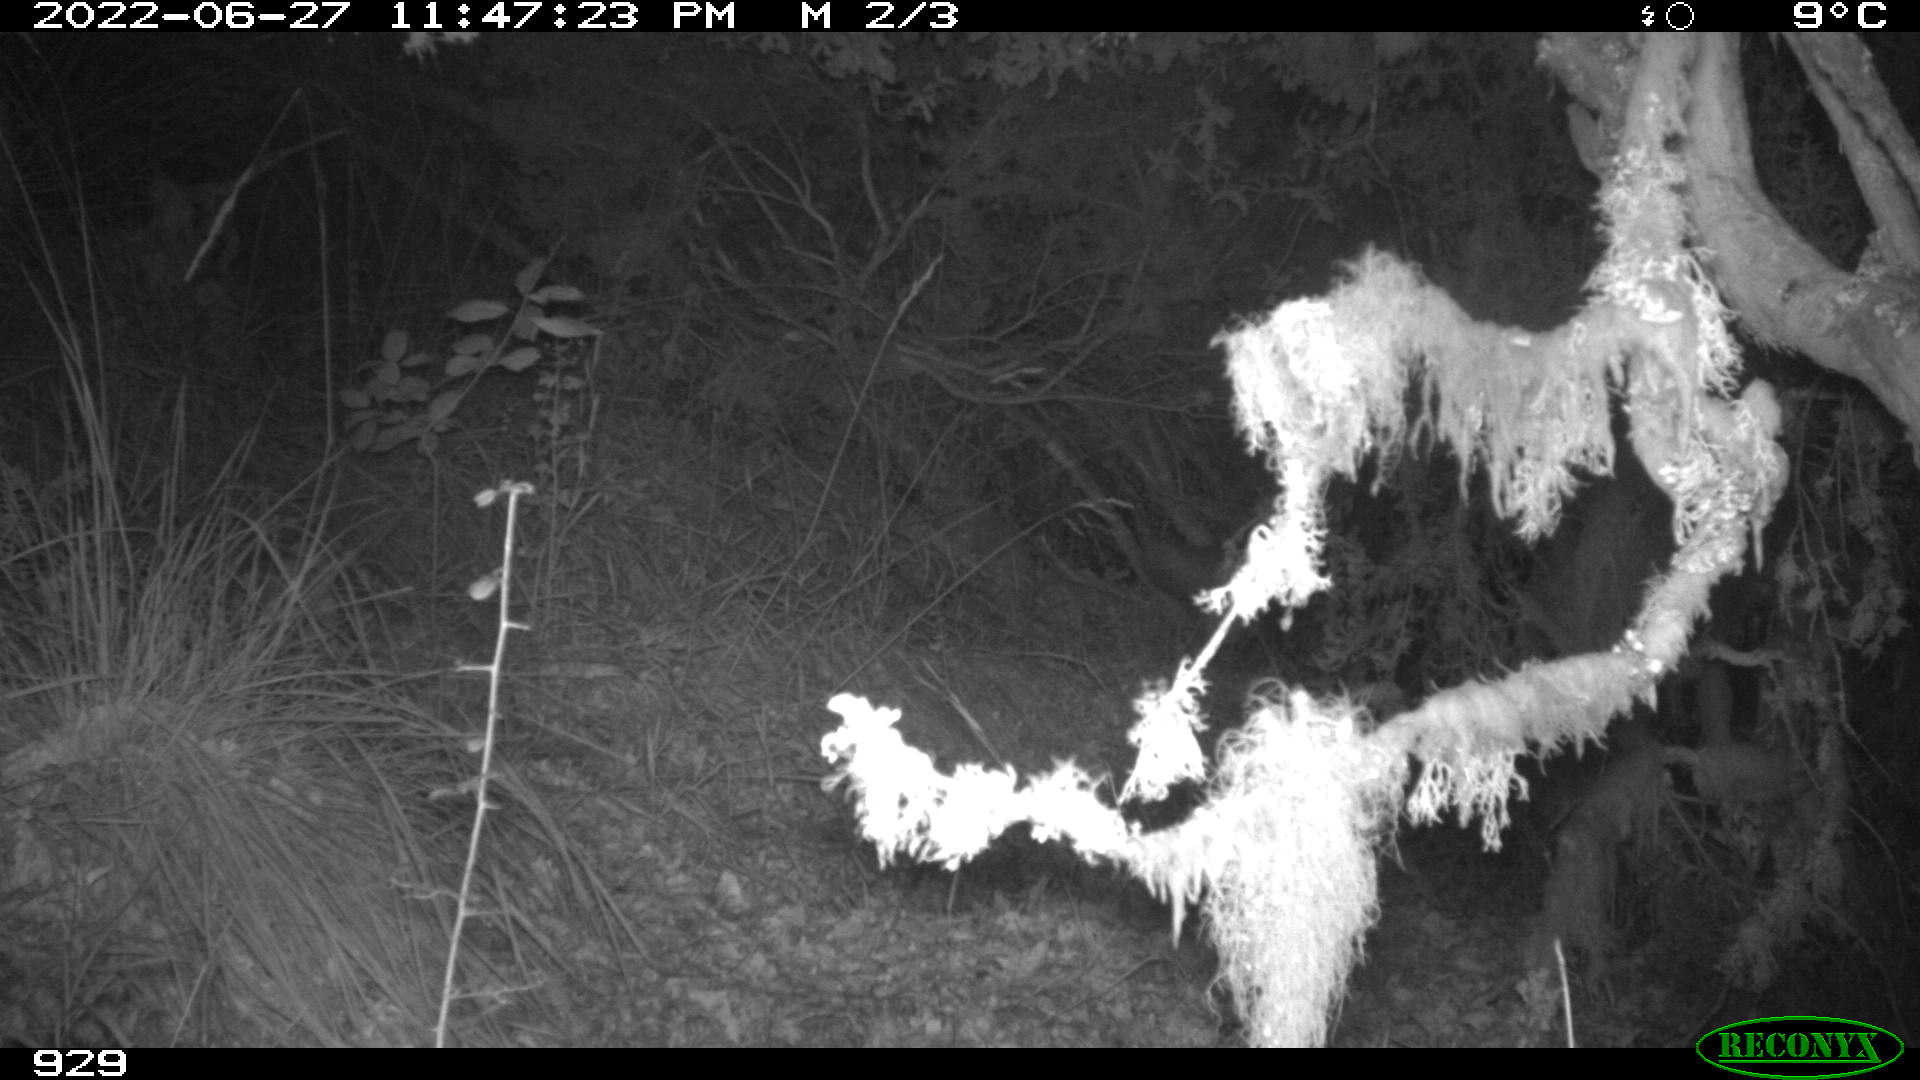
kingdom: Animalia
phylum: Chordata
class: Mammalia
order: Carnivora
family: Canidae
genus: Vulpes
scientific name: Vulpes vulpes
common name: Red fox
